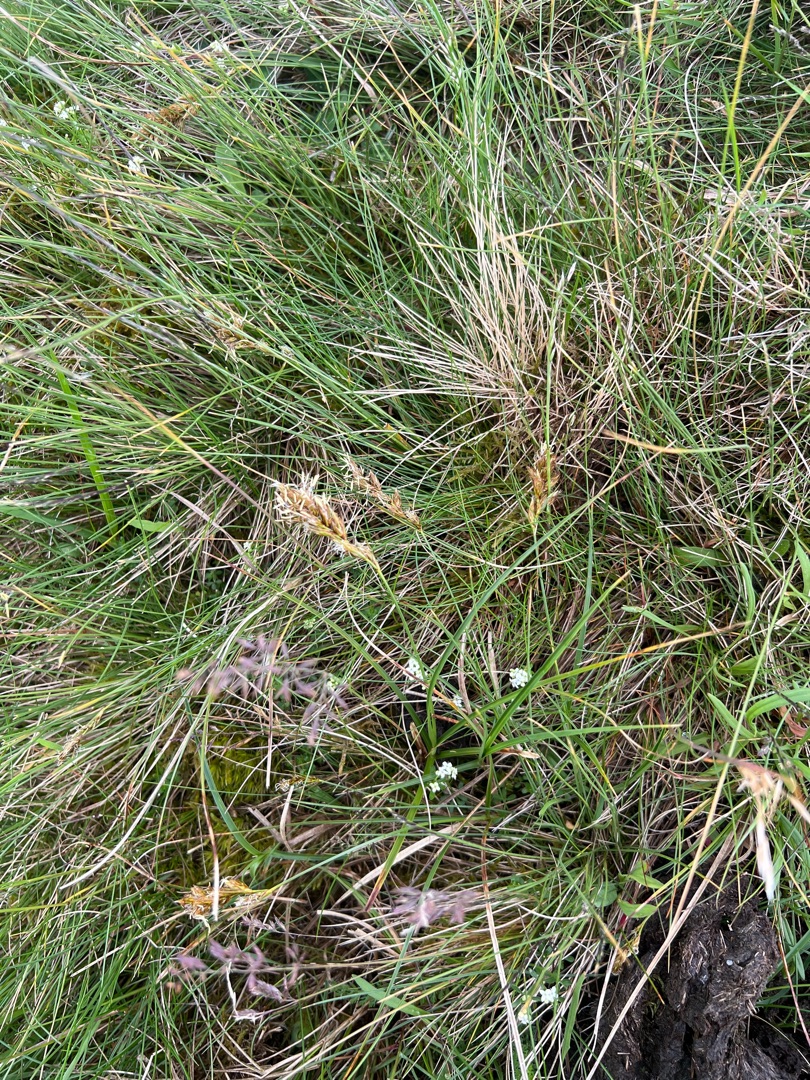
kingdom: Plantae
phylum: Tracheophyta
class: Liliopsida
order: Poales
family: Cyperaceae
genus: Carex
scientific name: Carex arenaria
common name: Sand-star
